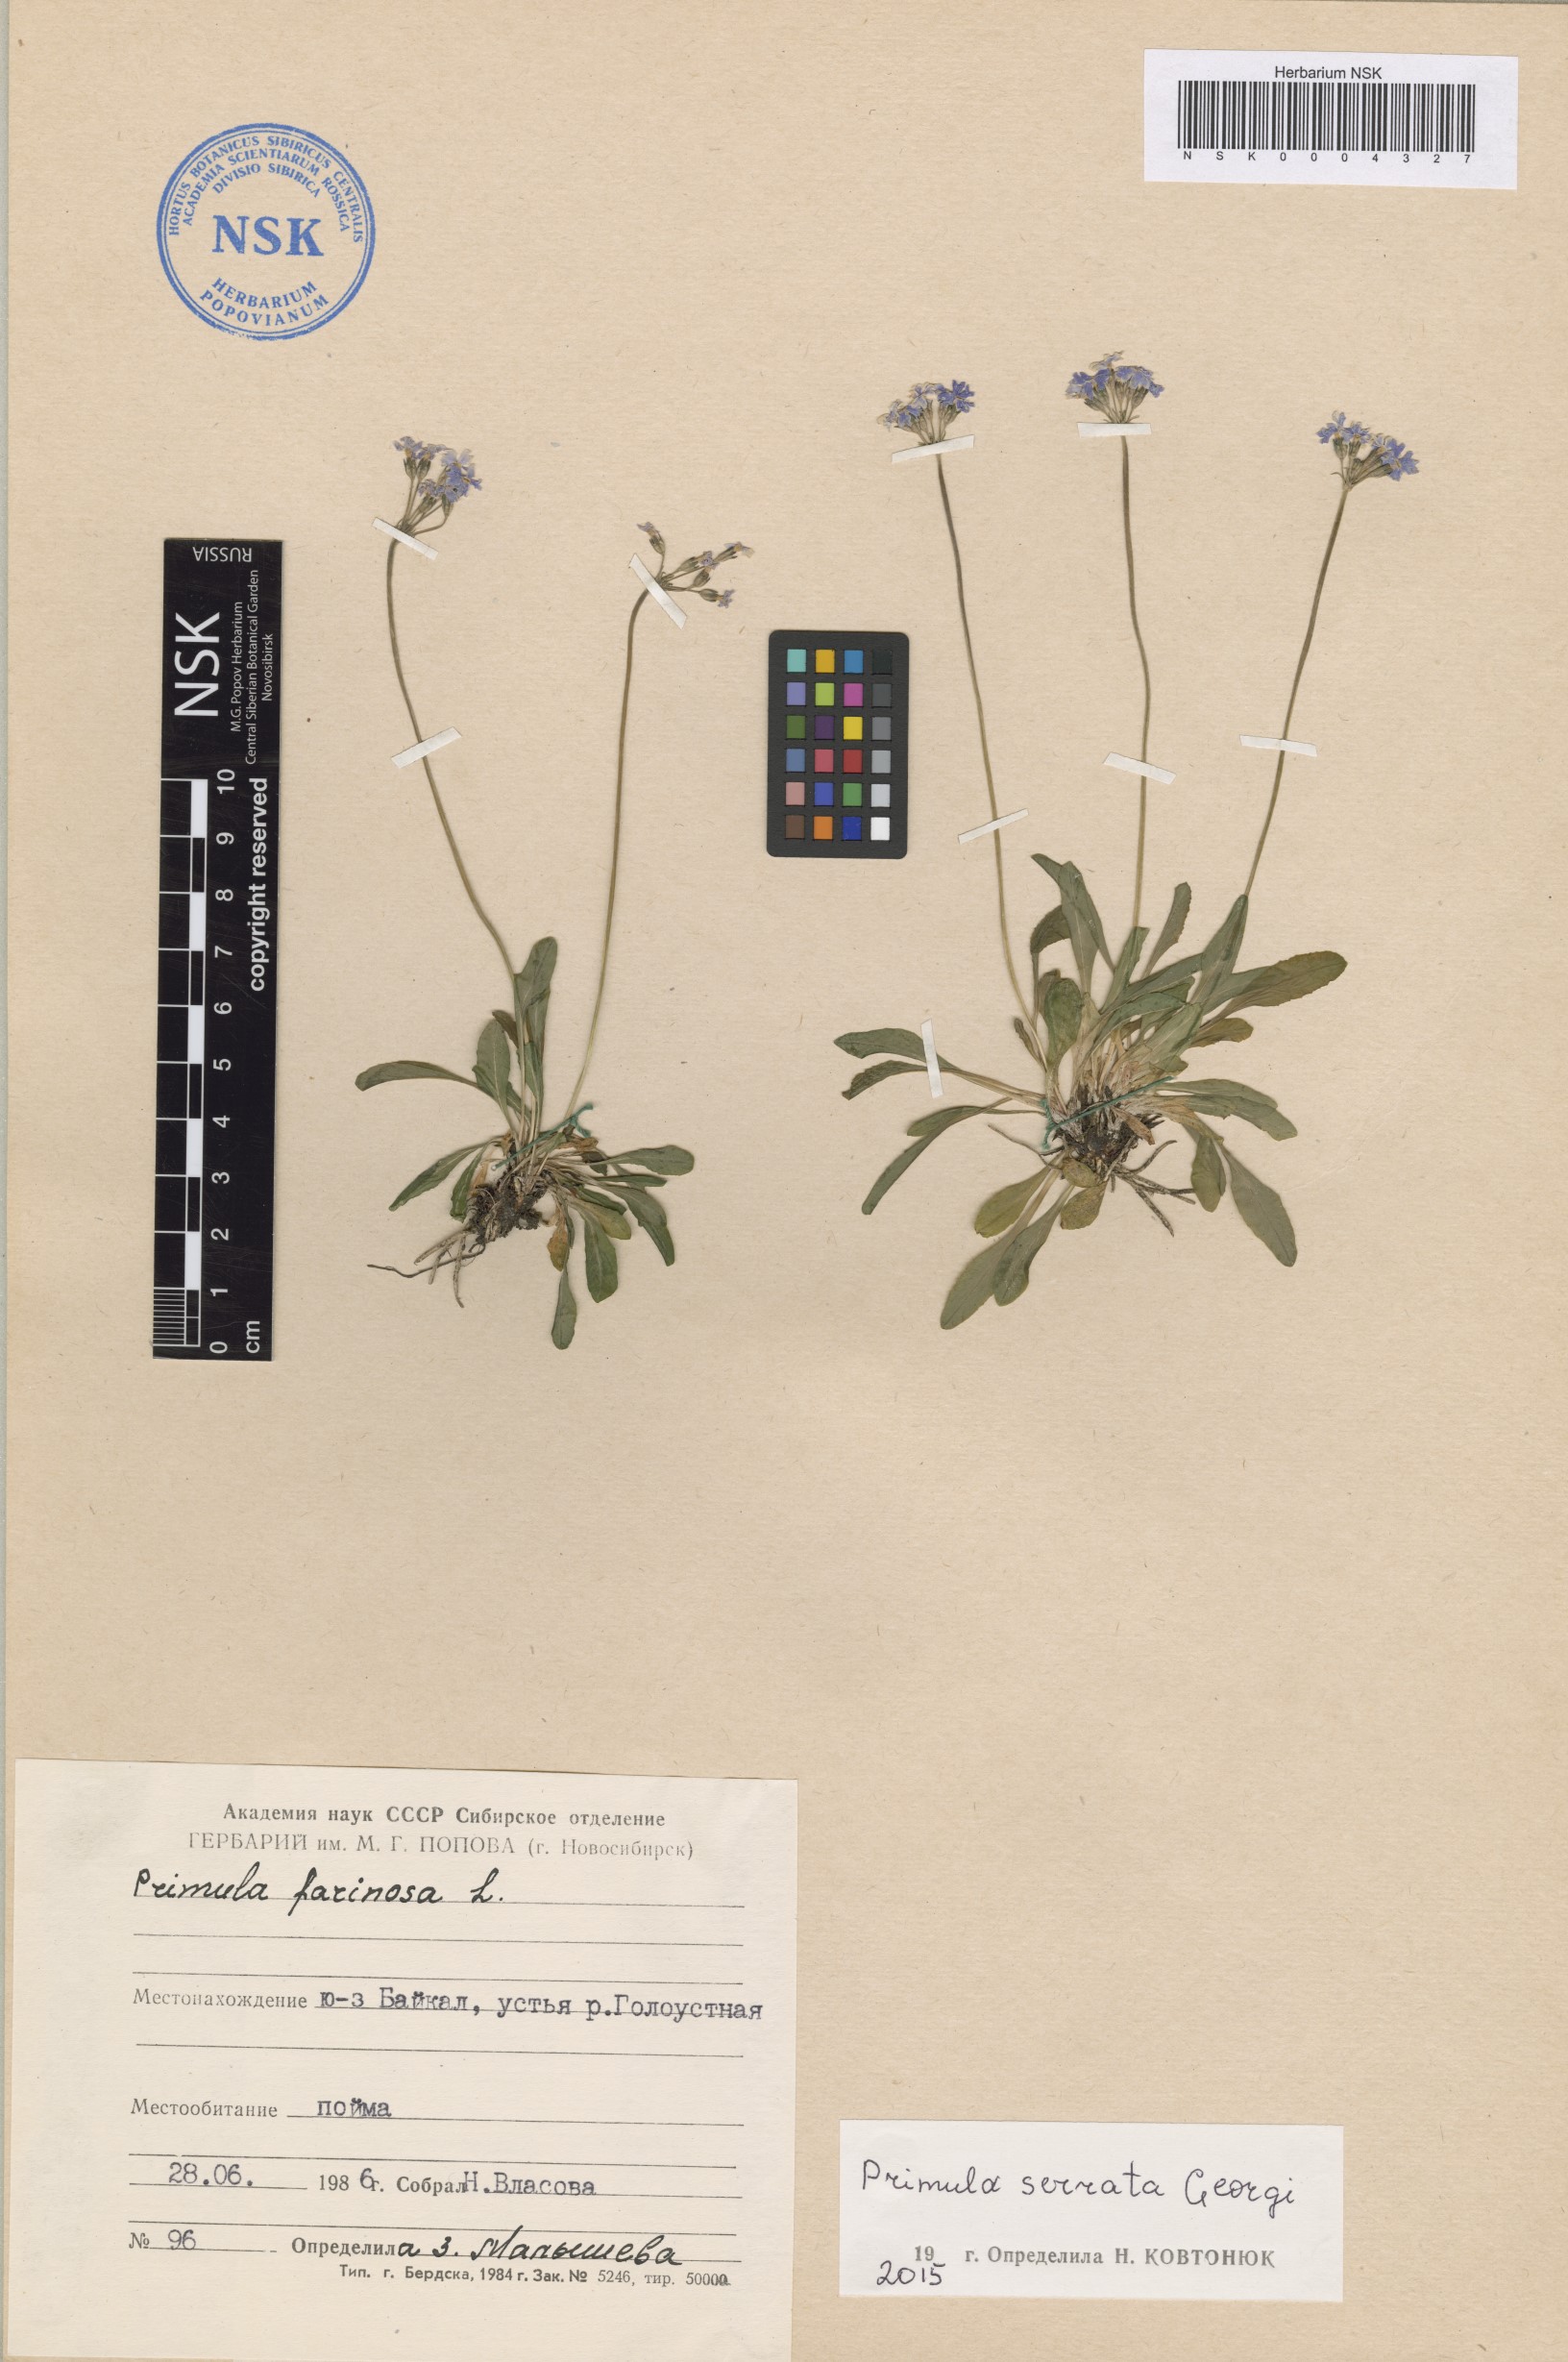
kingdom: Plantae
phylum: Tracheophyta
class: Magnoliopsida
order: Ericales
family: Primulaceae
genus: Primula
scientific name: Primula serrata
